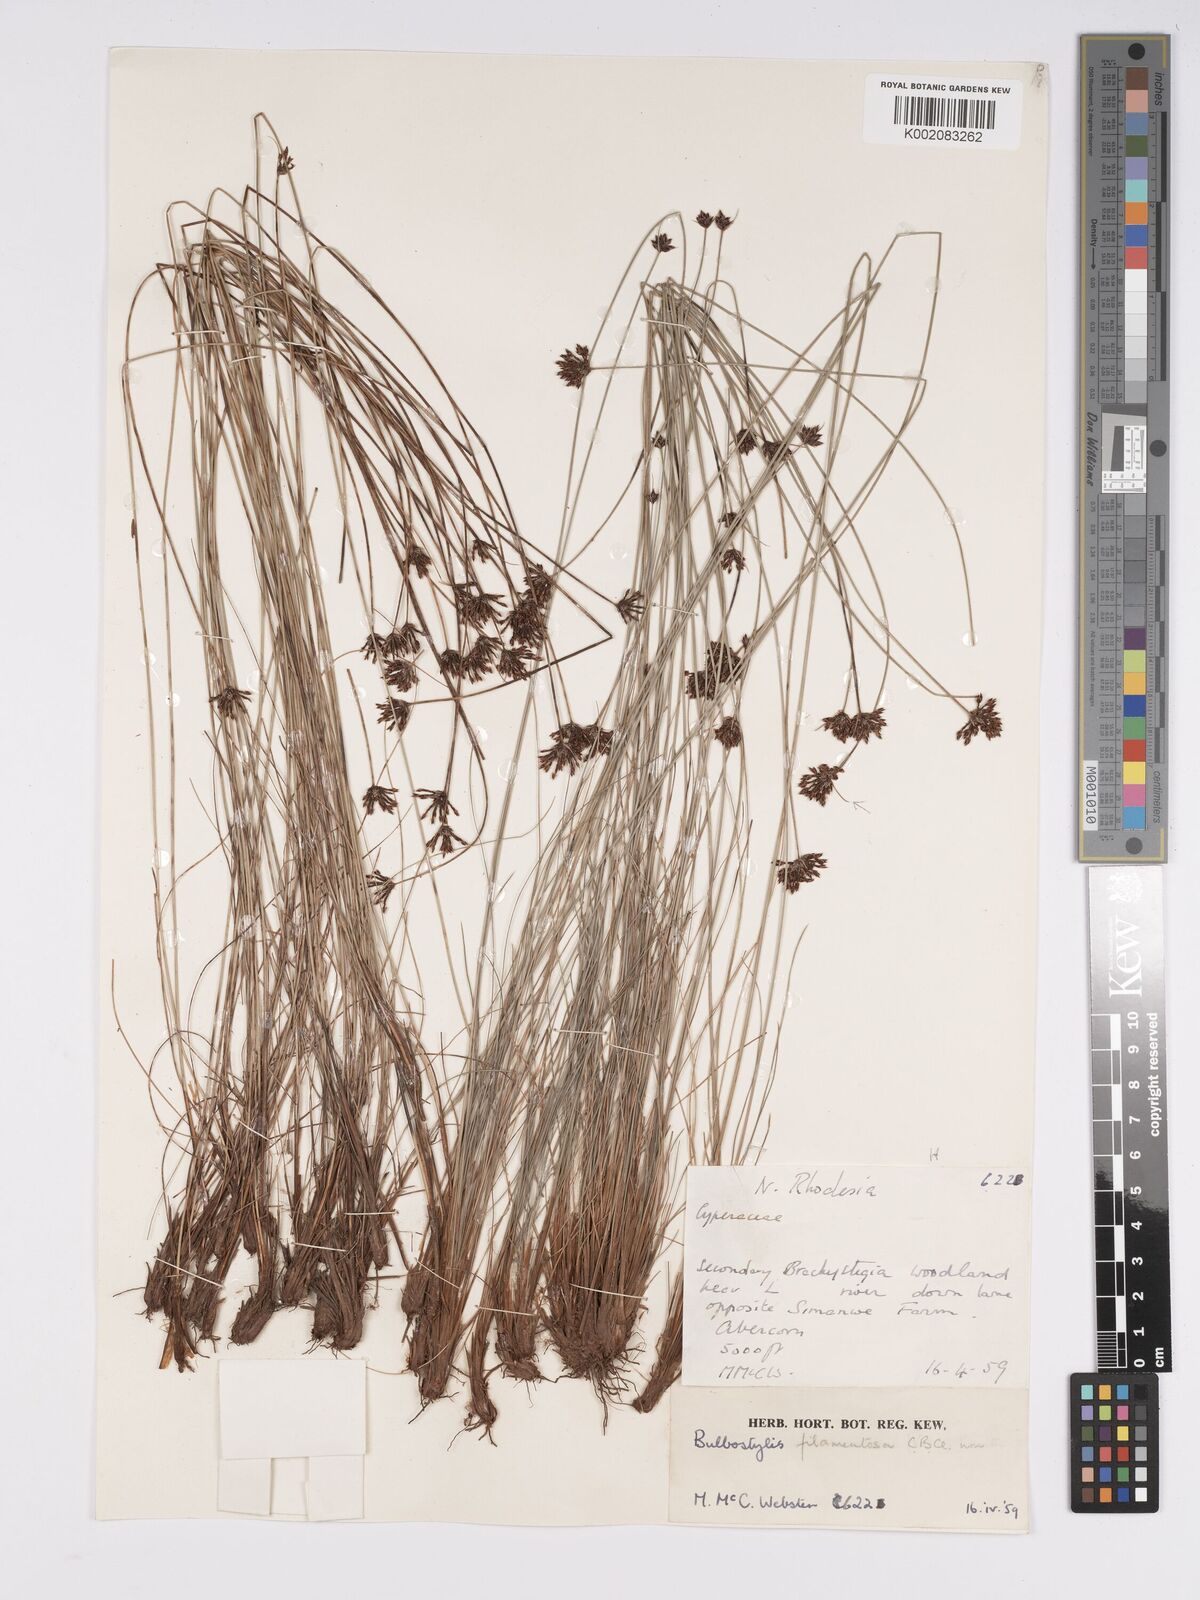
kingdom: Plantae
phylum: Tracheophyta
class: Liliopsida
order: Poales
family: Cyperaceae
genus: Bulbostylis
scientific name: Bulbostylis scabricaulis
